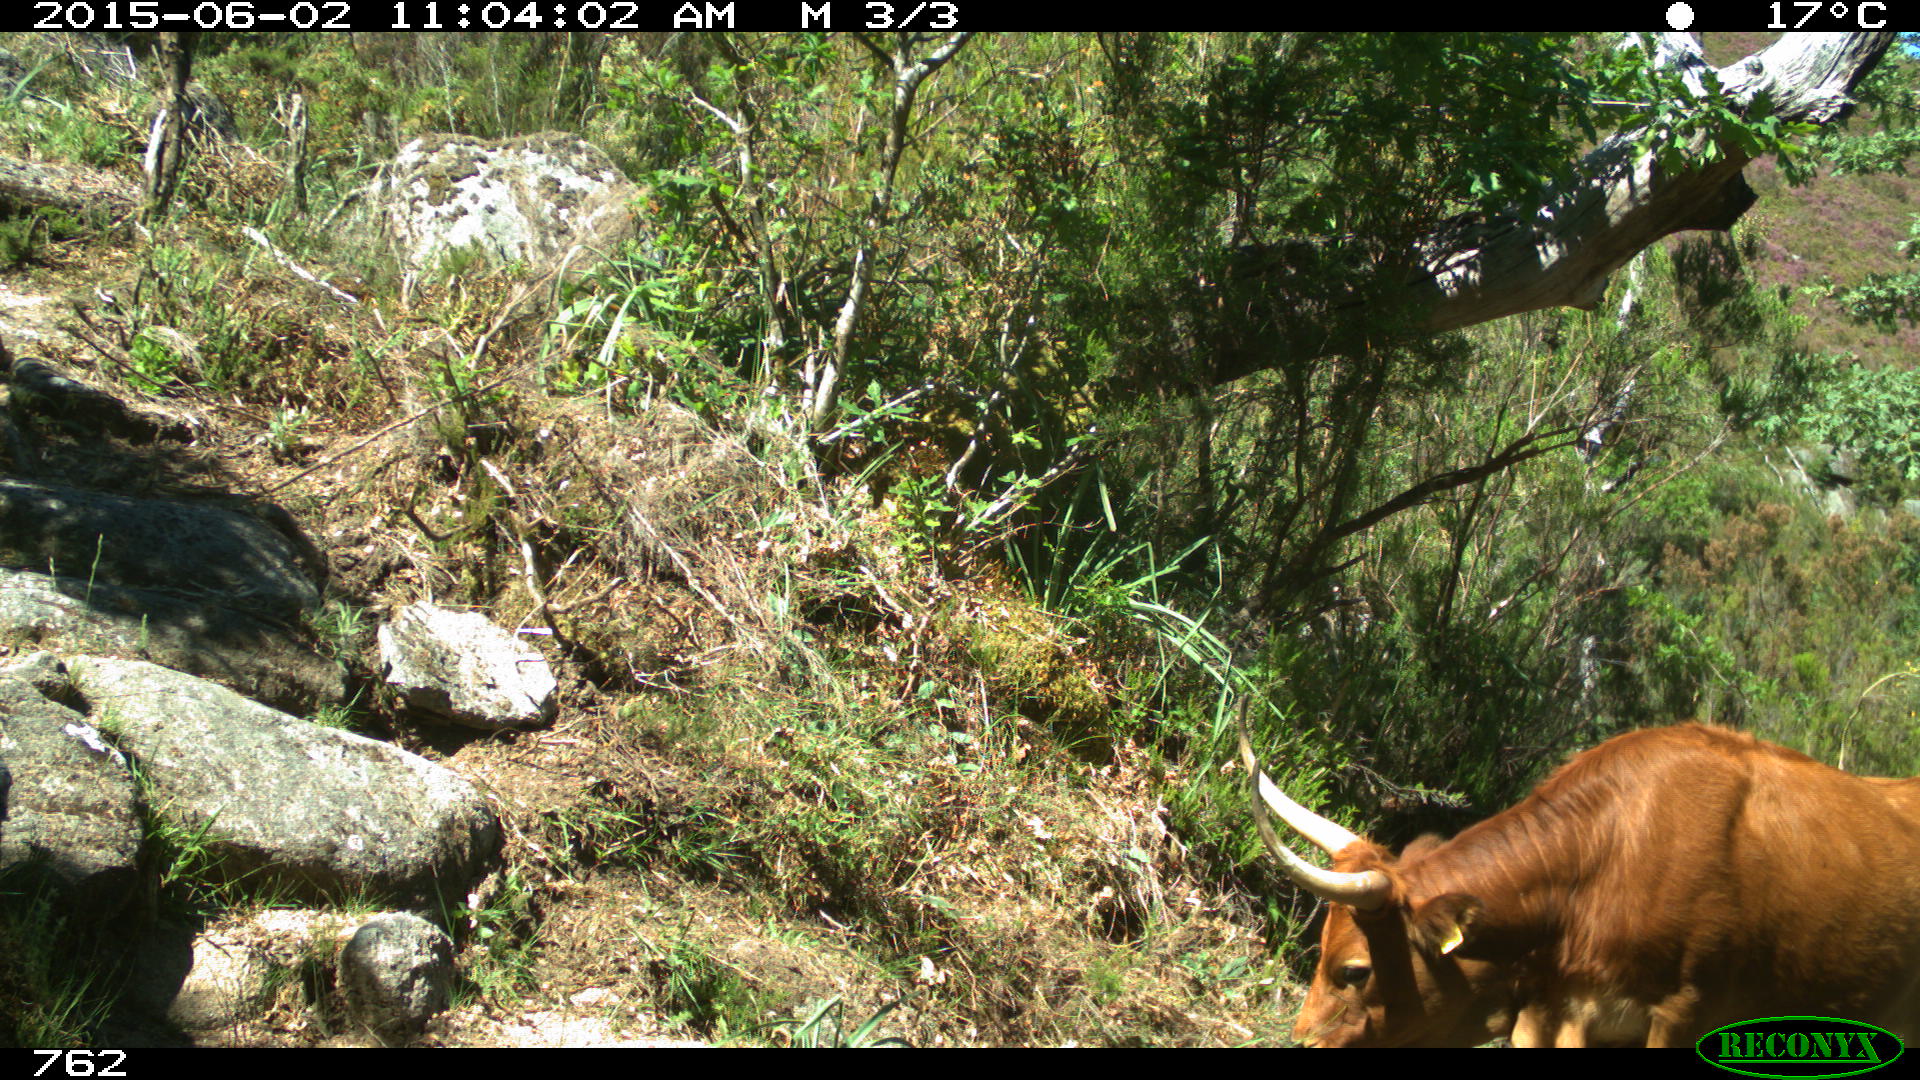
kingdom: Animalia
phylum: Chordata
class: Mammalia
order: Artiodactyla
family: Bovidae
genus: Bos
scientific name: Bos taurus
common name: Domesticated cattle
